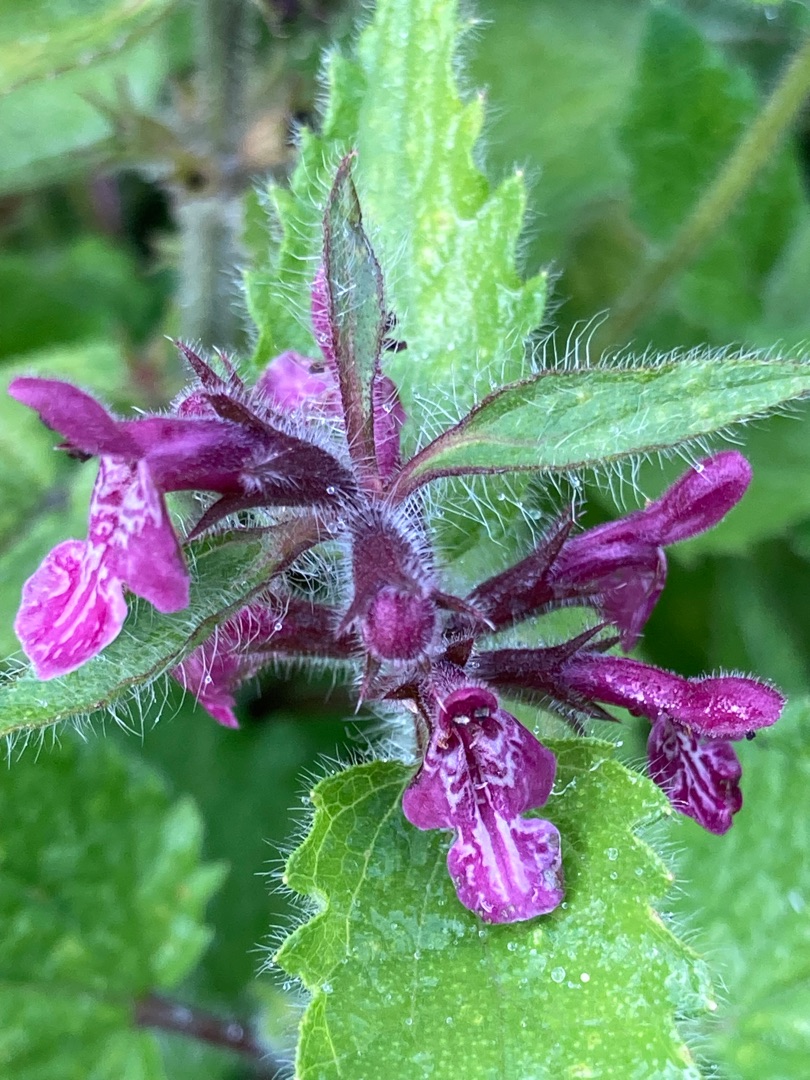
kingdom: Plantae
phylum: Tracheophyta
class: Magnoliopsida
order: Lamiales
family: Lamiaceae
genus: Stachys
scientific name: Stachys sylvatica
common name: Skov-galtetand
